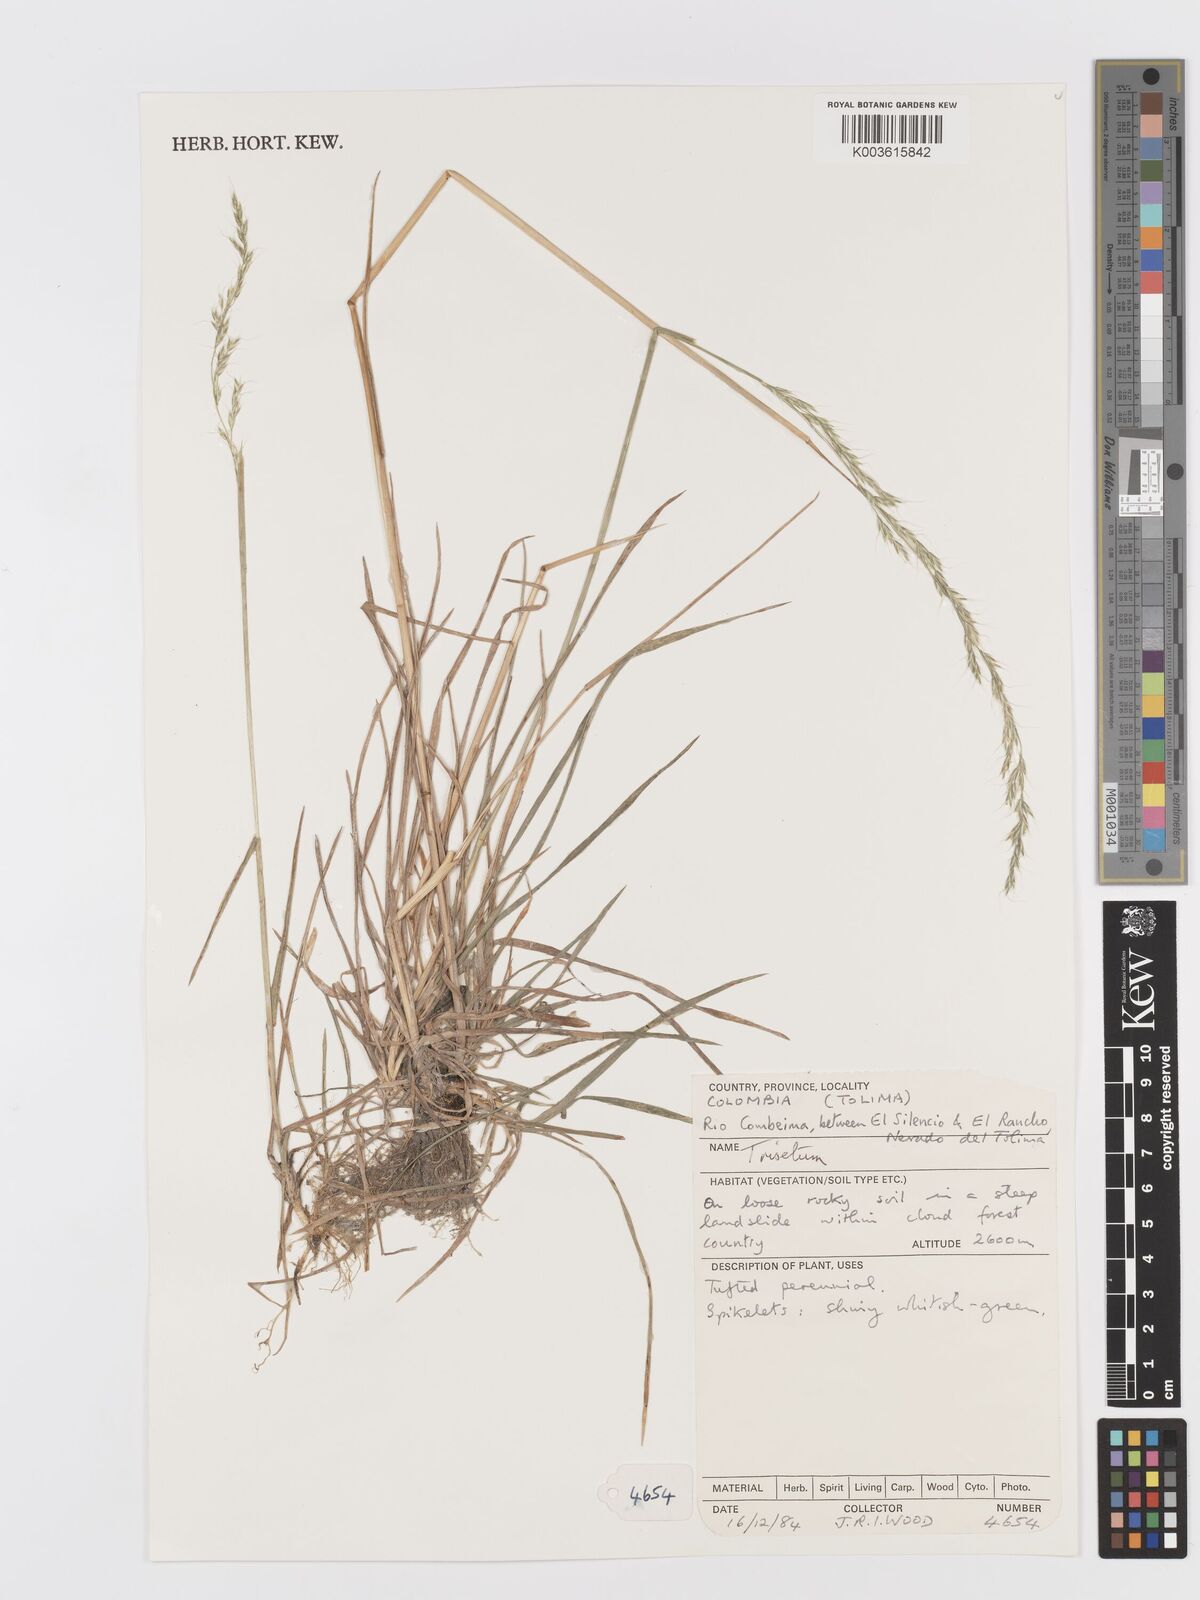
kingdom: Plantae
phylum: Tracheophyta
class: Liliopsida
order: Poales
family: Poaceae
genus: Peyritschia
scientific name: Peyritschia irazuensis
